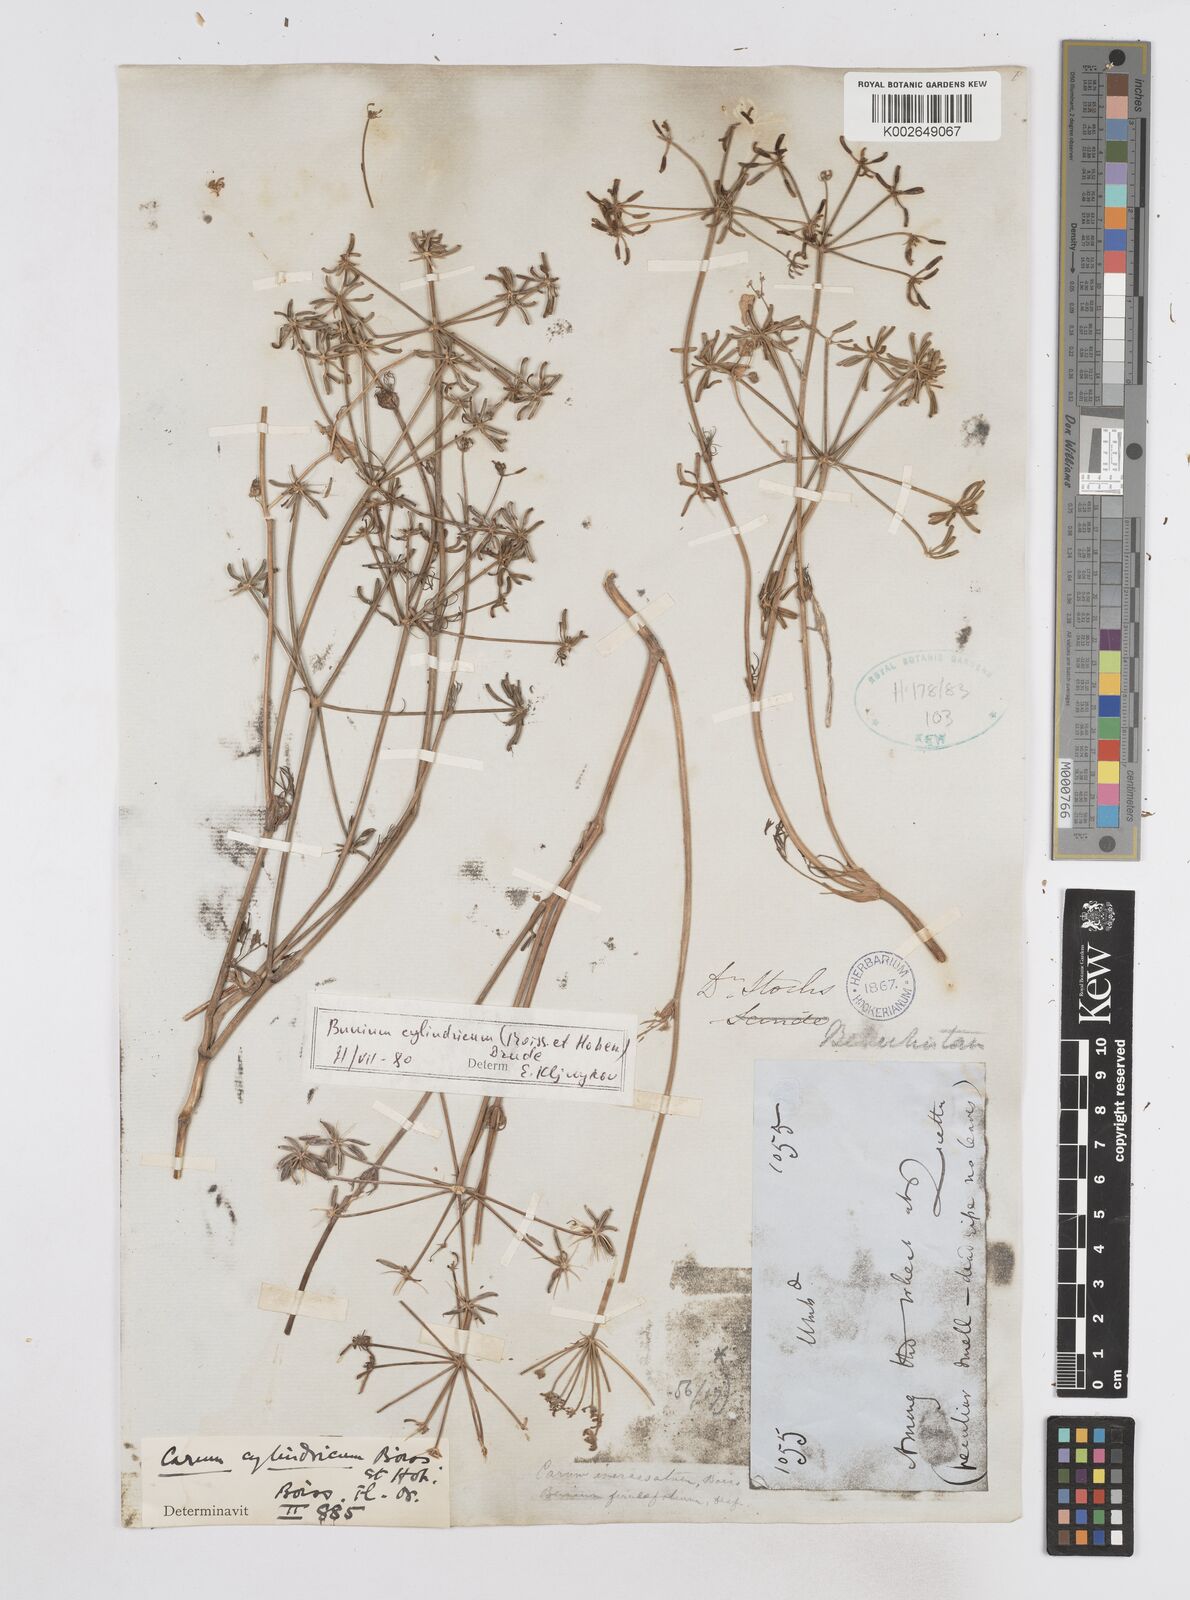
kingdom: Plantae
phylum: Tracheophyta
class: Magnoliopsida
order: Apiales
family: Apiaceae
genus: Elwendia
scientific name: Elwendia cylindrica
